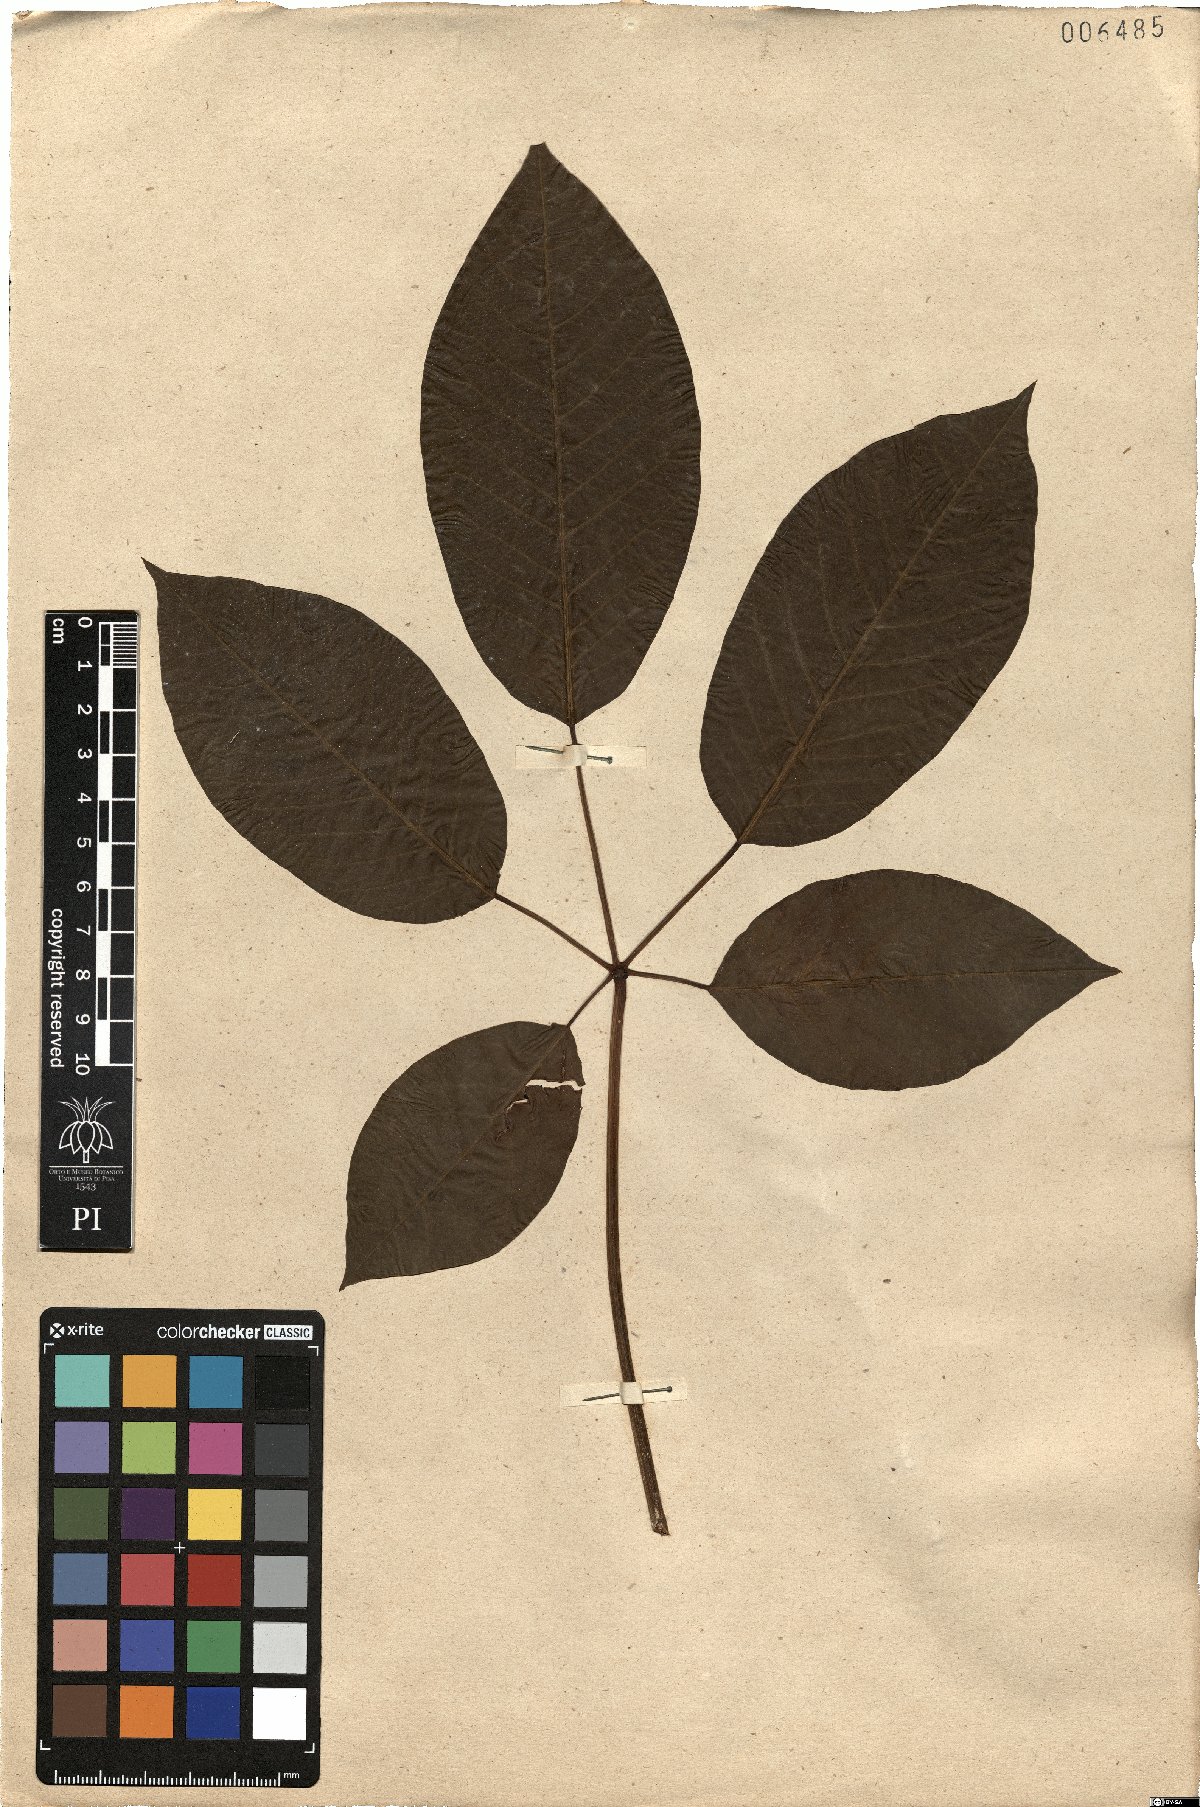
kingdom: Plantae
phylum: Tracheophyta
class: Magnoliopsida
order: Malpighiales
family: Euphorbiaceae
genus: Joannesia
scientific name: Joannesia princeps
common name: Arara nut-tree
